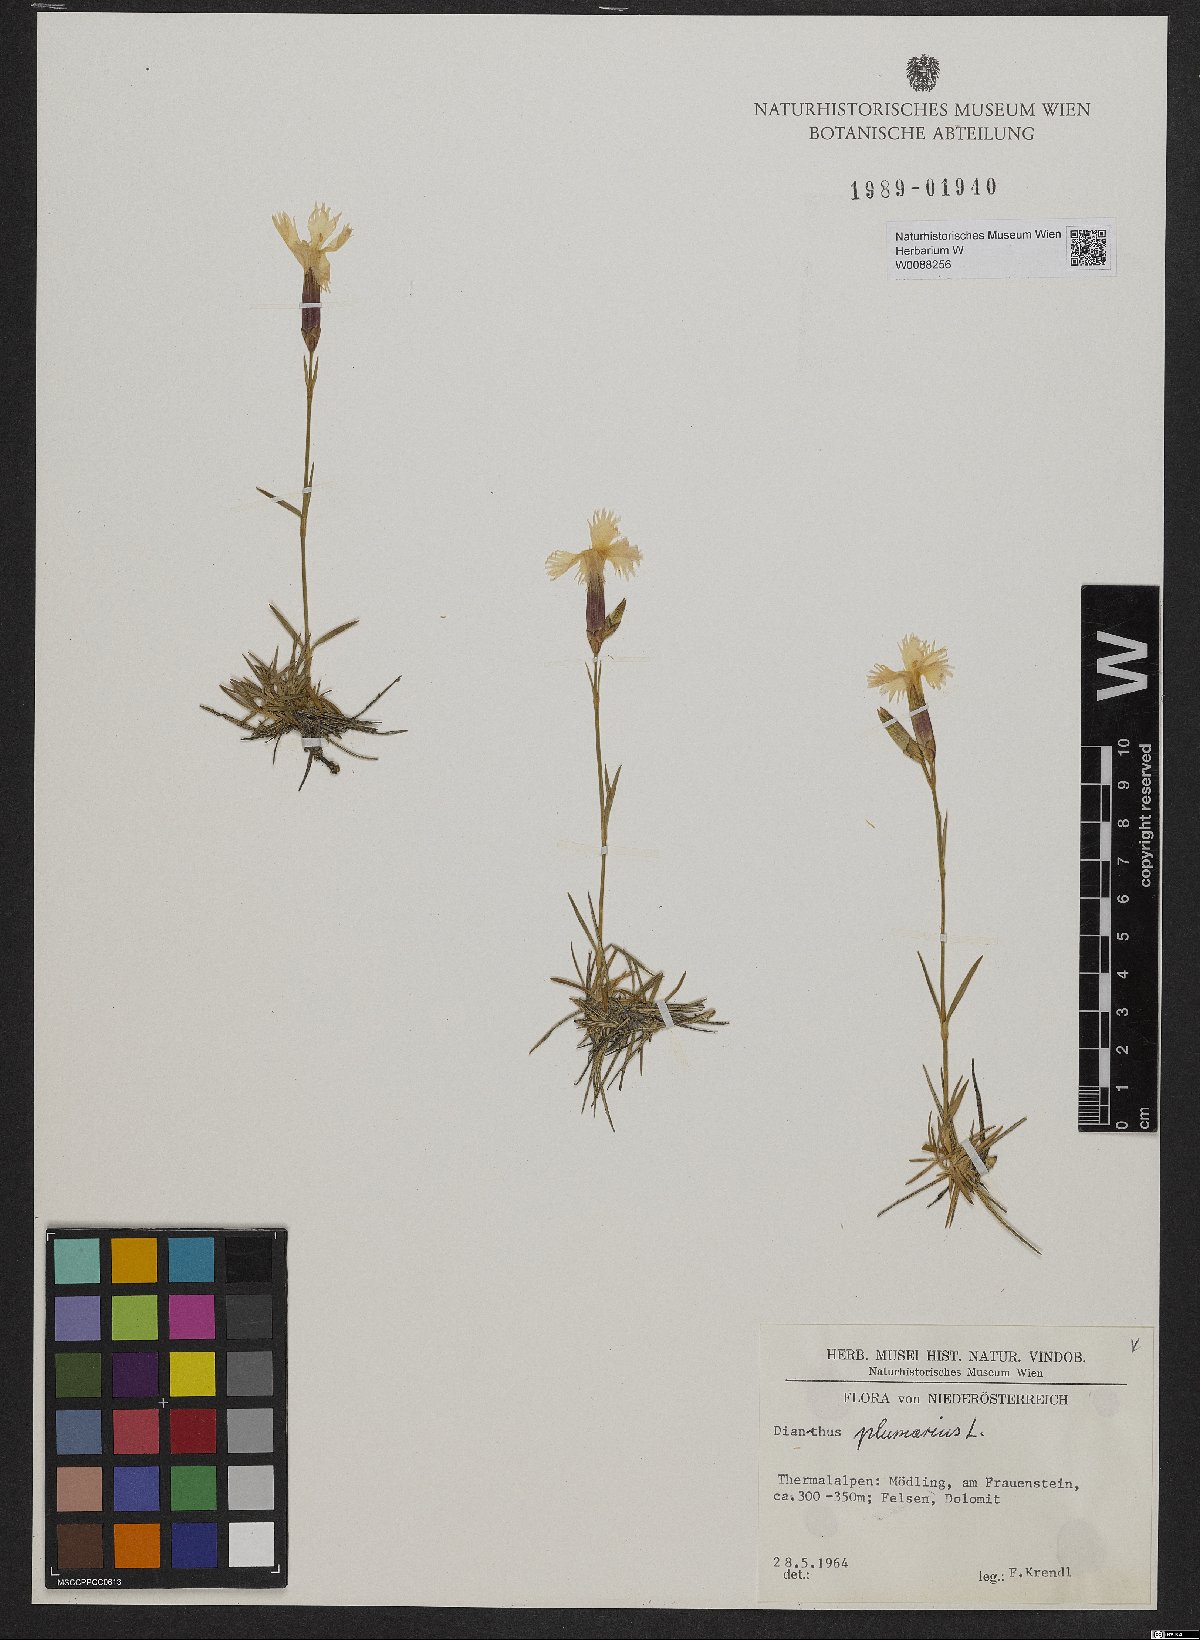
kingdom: Plantae
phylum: Tracheophyta
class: Magnoliopsida
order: Caryophyllales
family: Caryophyllaceae
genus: Dianthus
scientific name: Dianthus plumarius
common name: Pink
